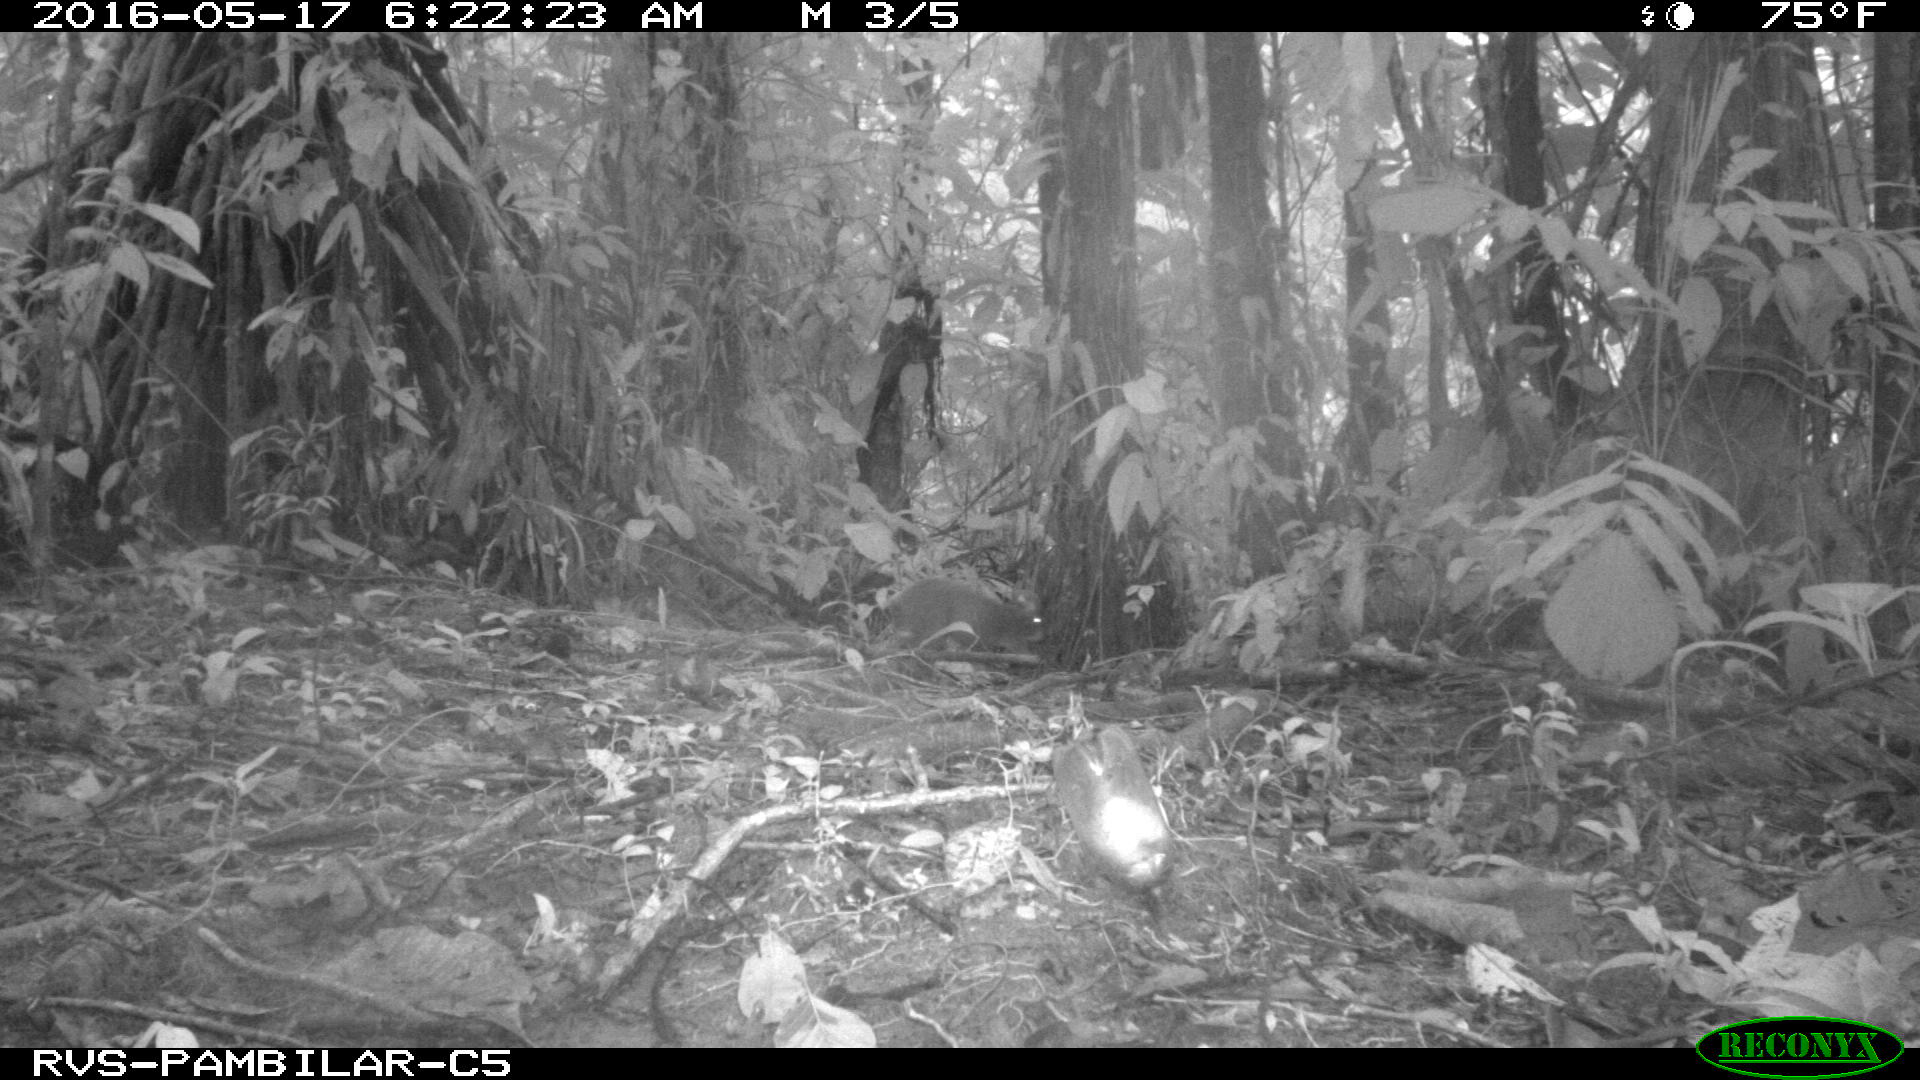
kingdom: Animalia
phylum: Chordata
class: Mammalia
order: Rodentia
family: Dasyproctidae
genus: Dasyprocta
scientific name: Dasyprocta punctata
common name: Central american agouti
